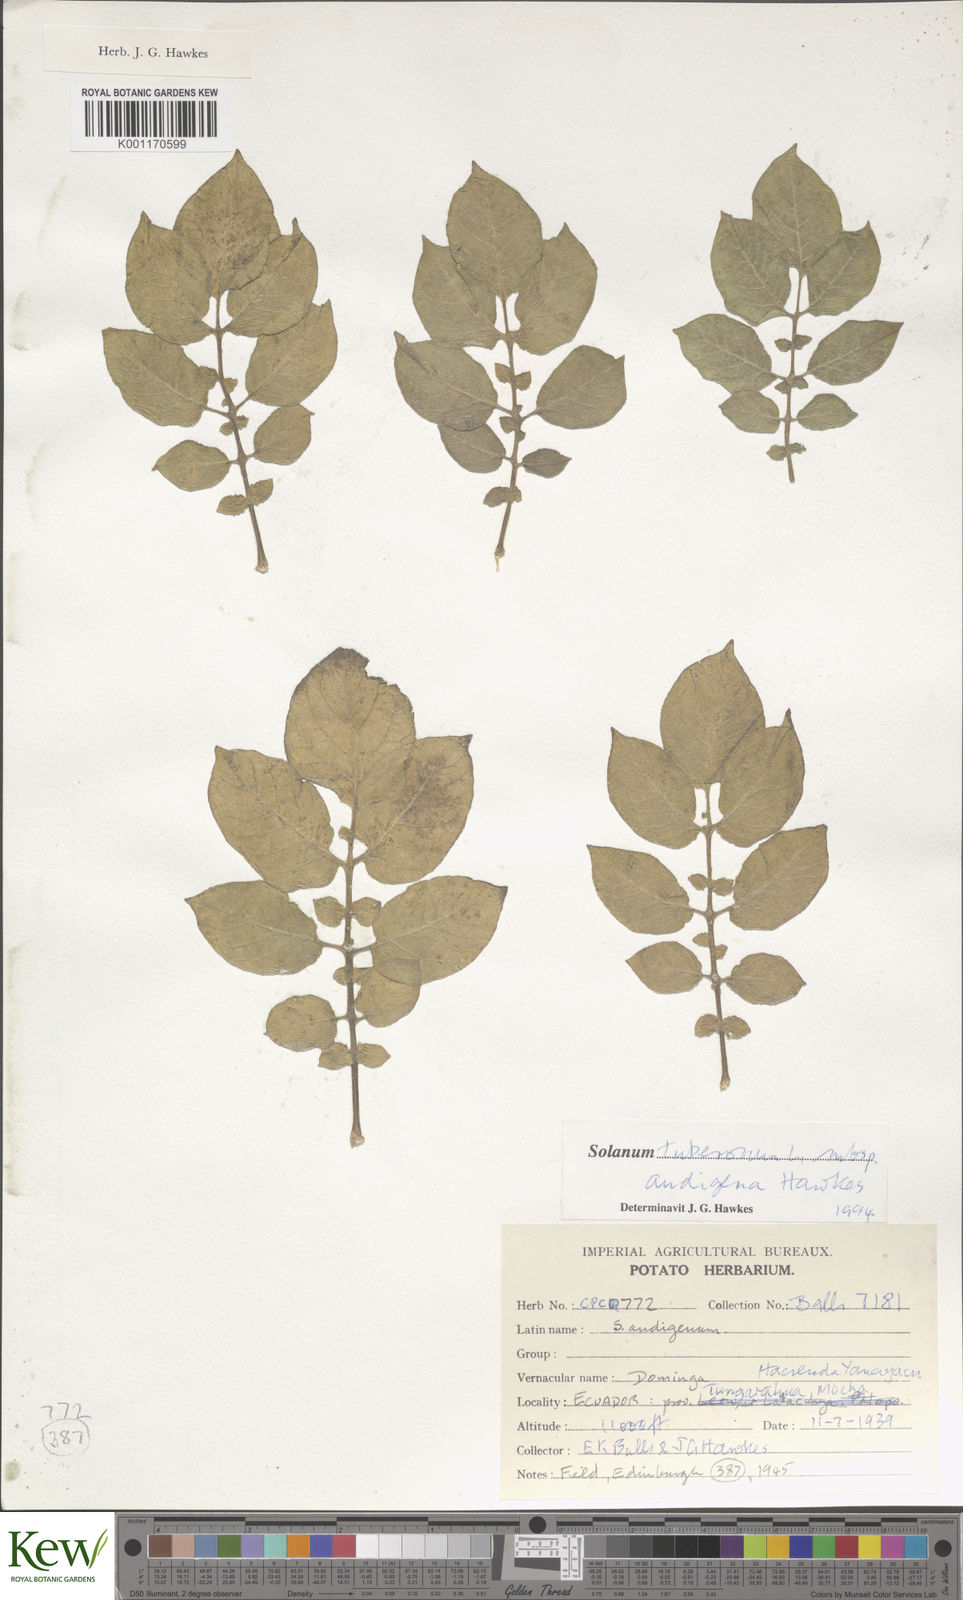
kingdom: Plantae
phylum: Tracheophyta
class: Magnoliopsida
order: Solanales
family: Solanaceae
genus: Solanum
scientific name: Solanum tuberosum
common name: Potato
